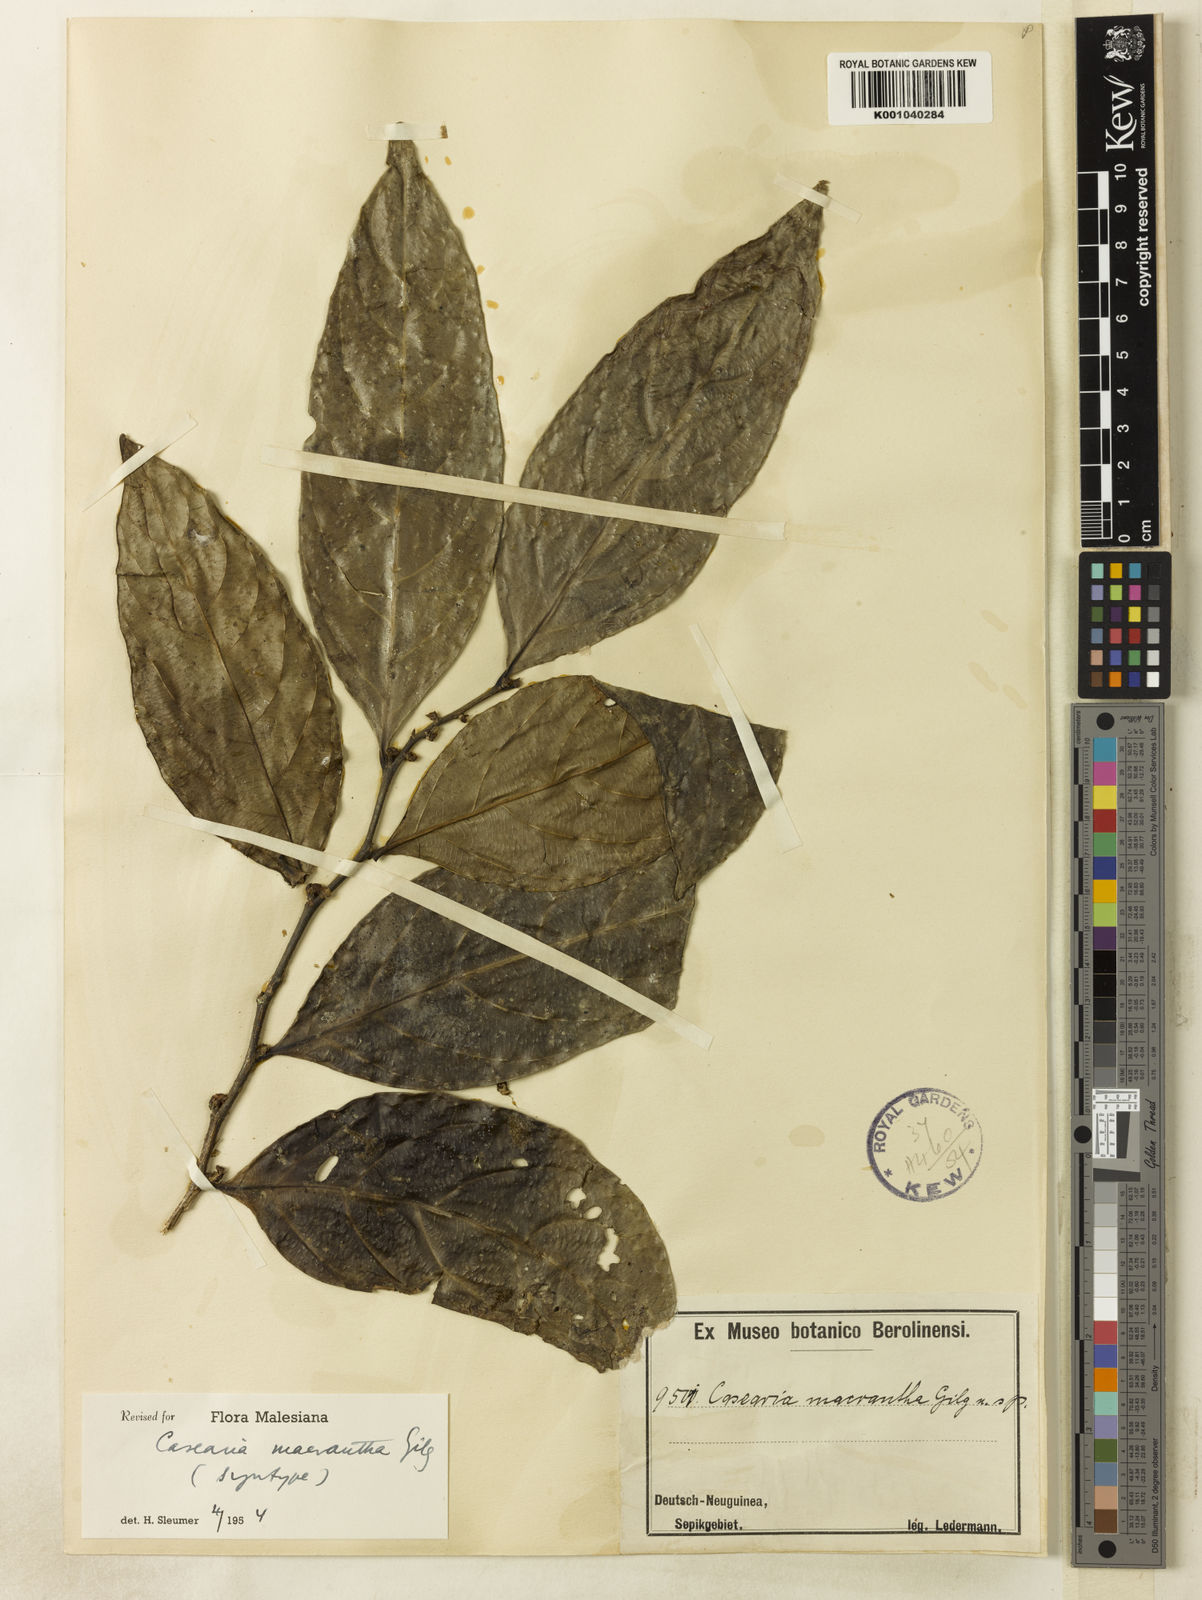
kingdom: Plantae
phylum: Tracheophyta
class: Magnoliopsida
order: Malpighiales
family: Salicaceae
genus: Casearia
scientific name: Casearia macrantha
